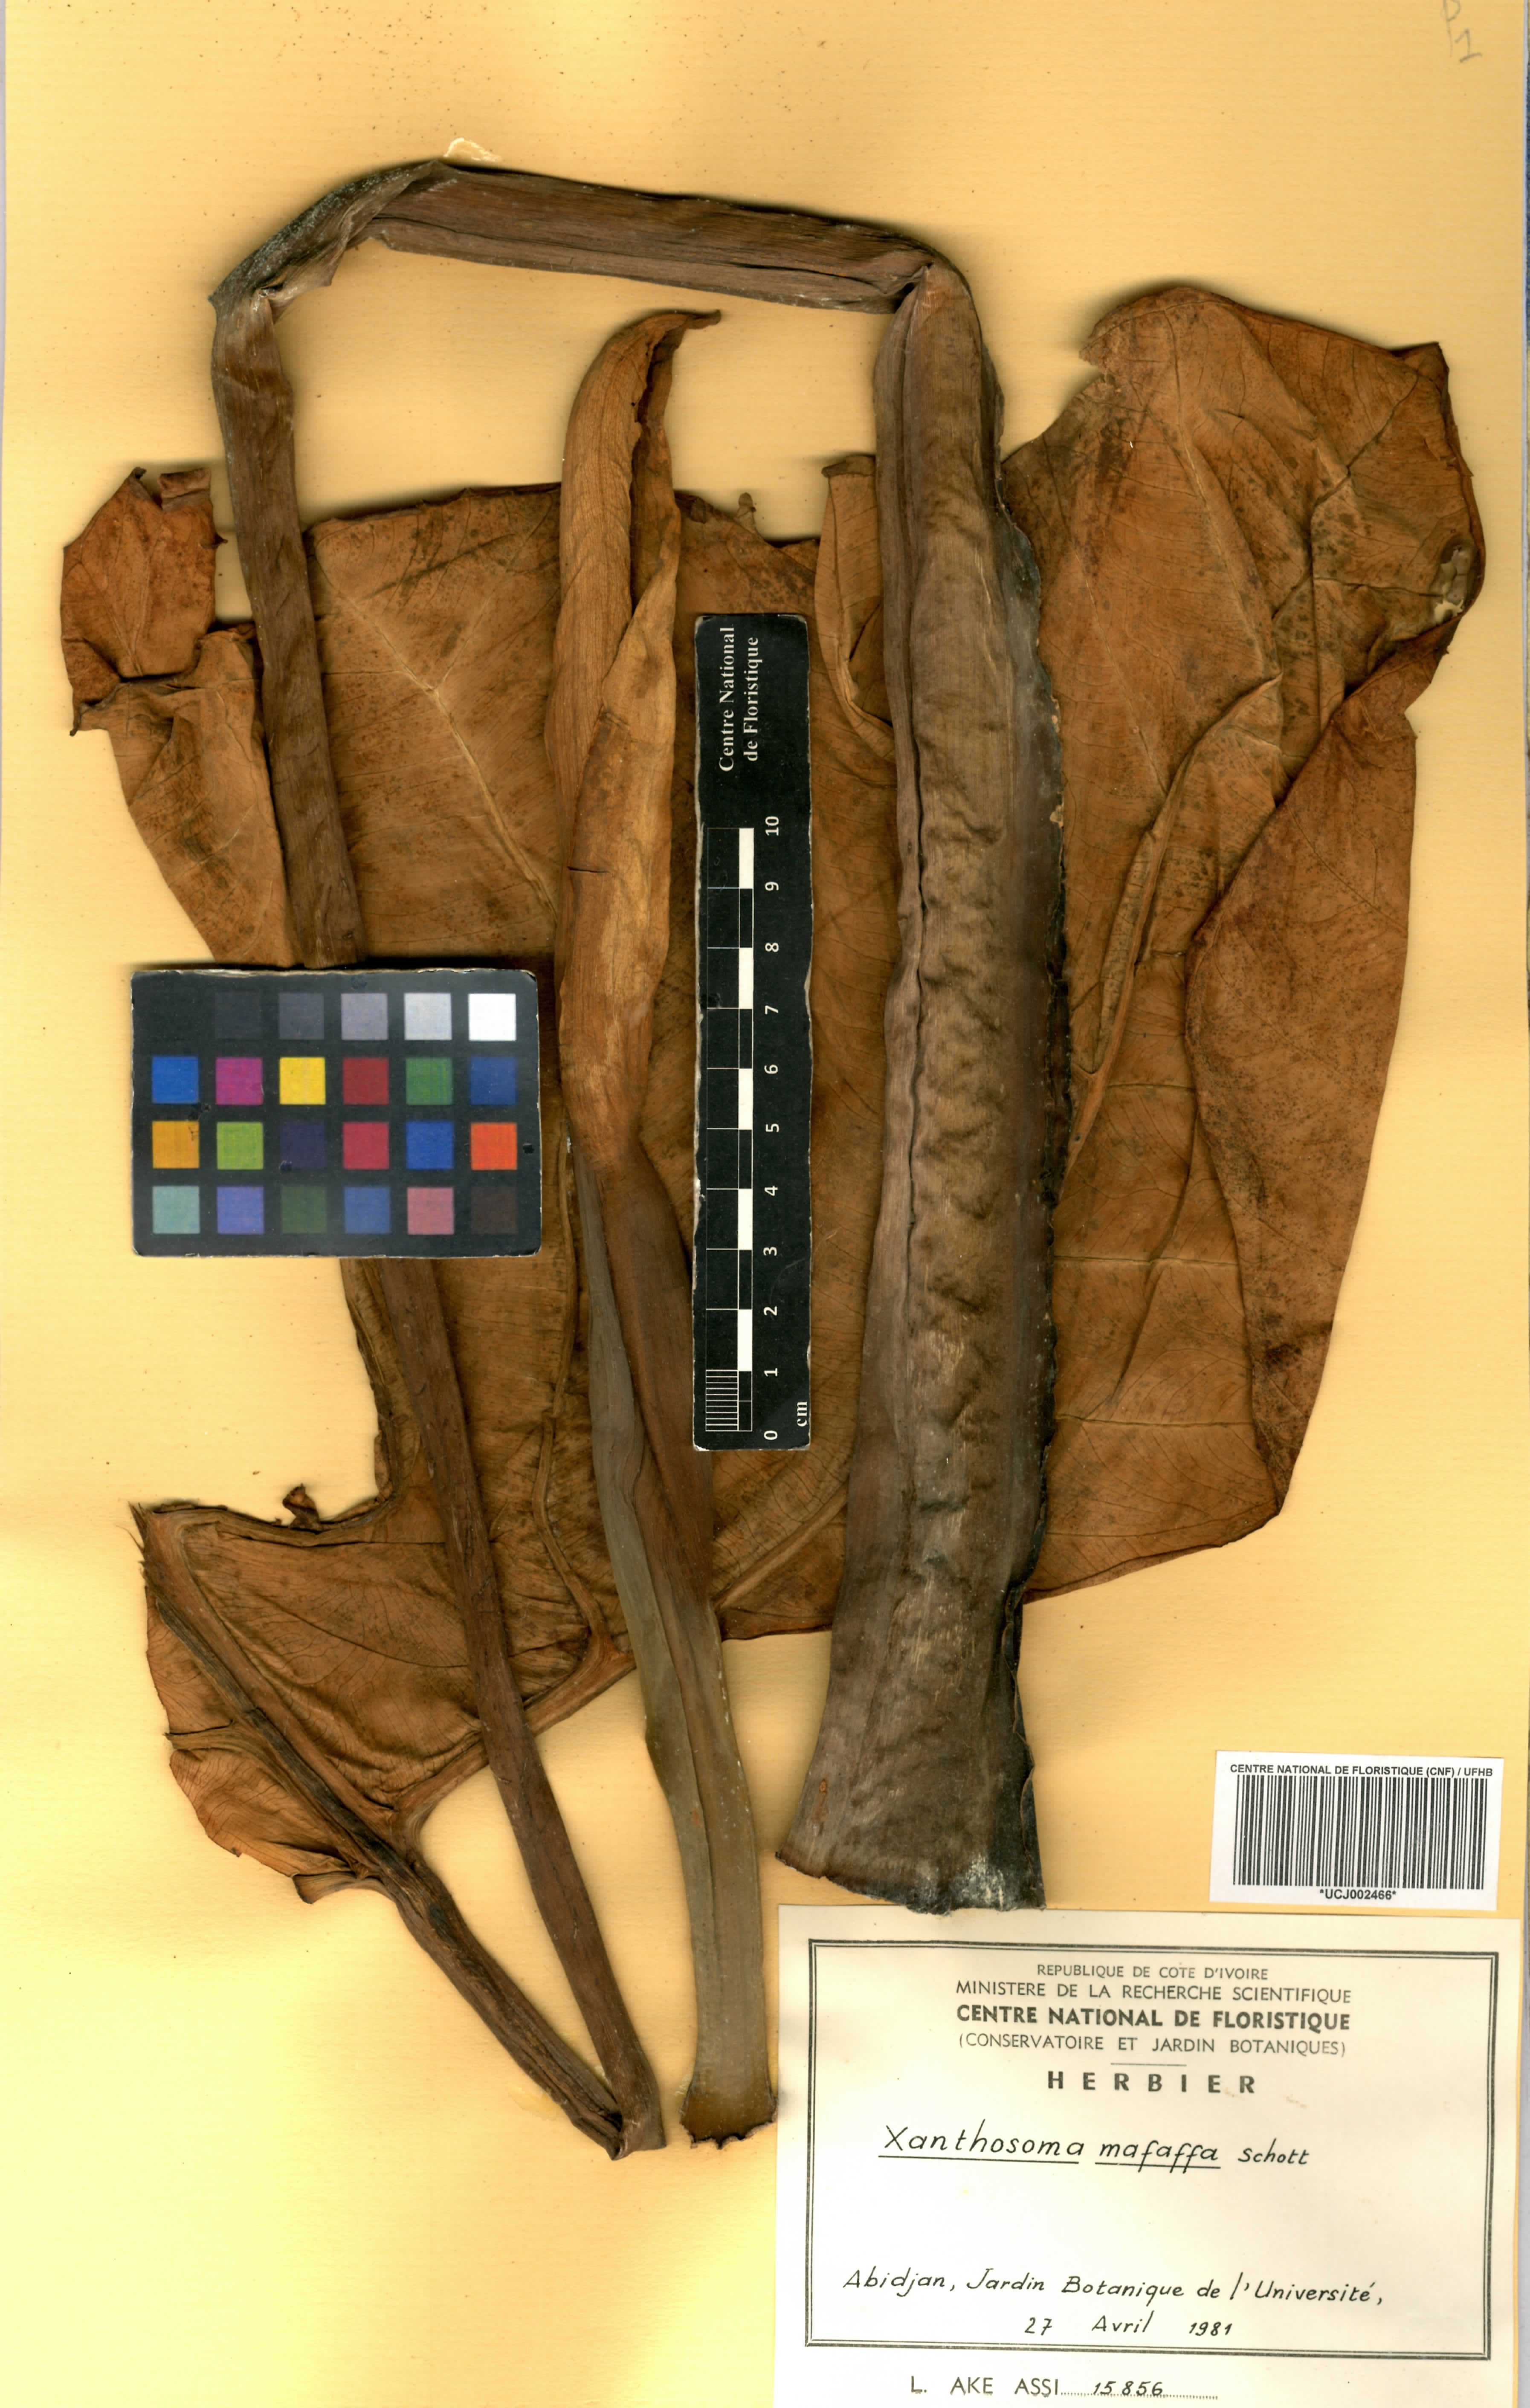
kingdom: Plantae
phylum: Tracheophyta
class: Liliopsida
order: Alismatales
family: Araceae
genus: Xanthosoma
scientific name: Xanthosoma sagittifolium
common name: Arrowleaf elephant's ear
